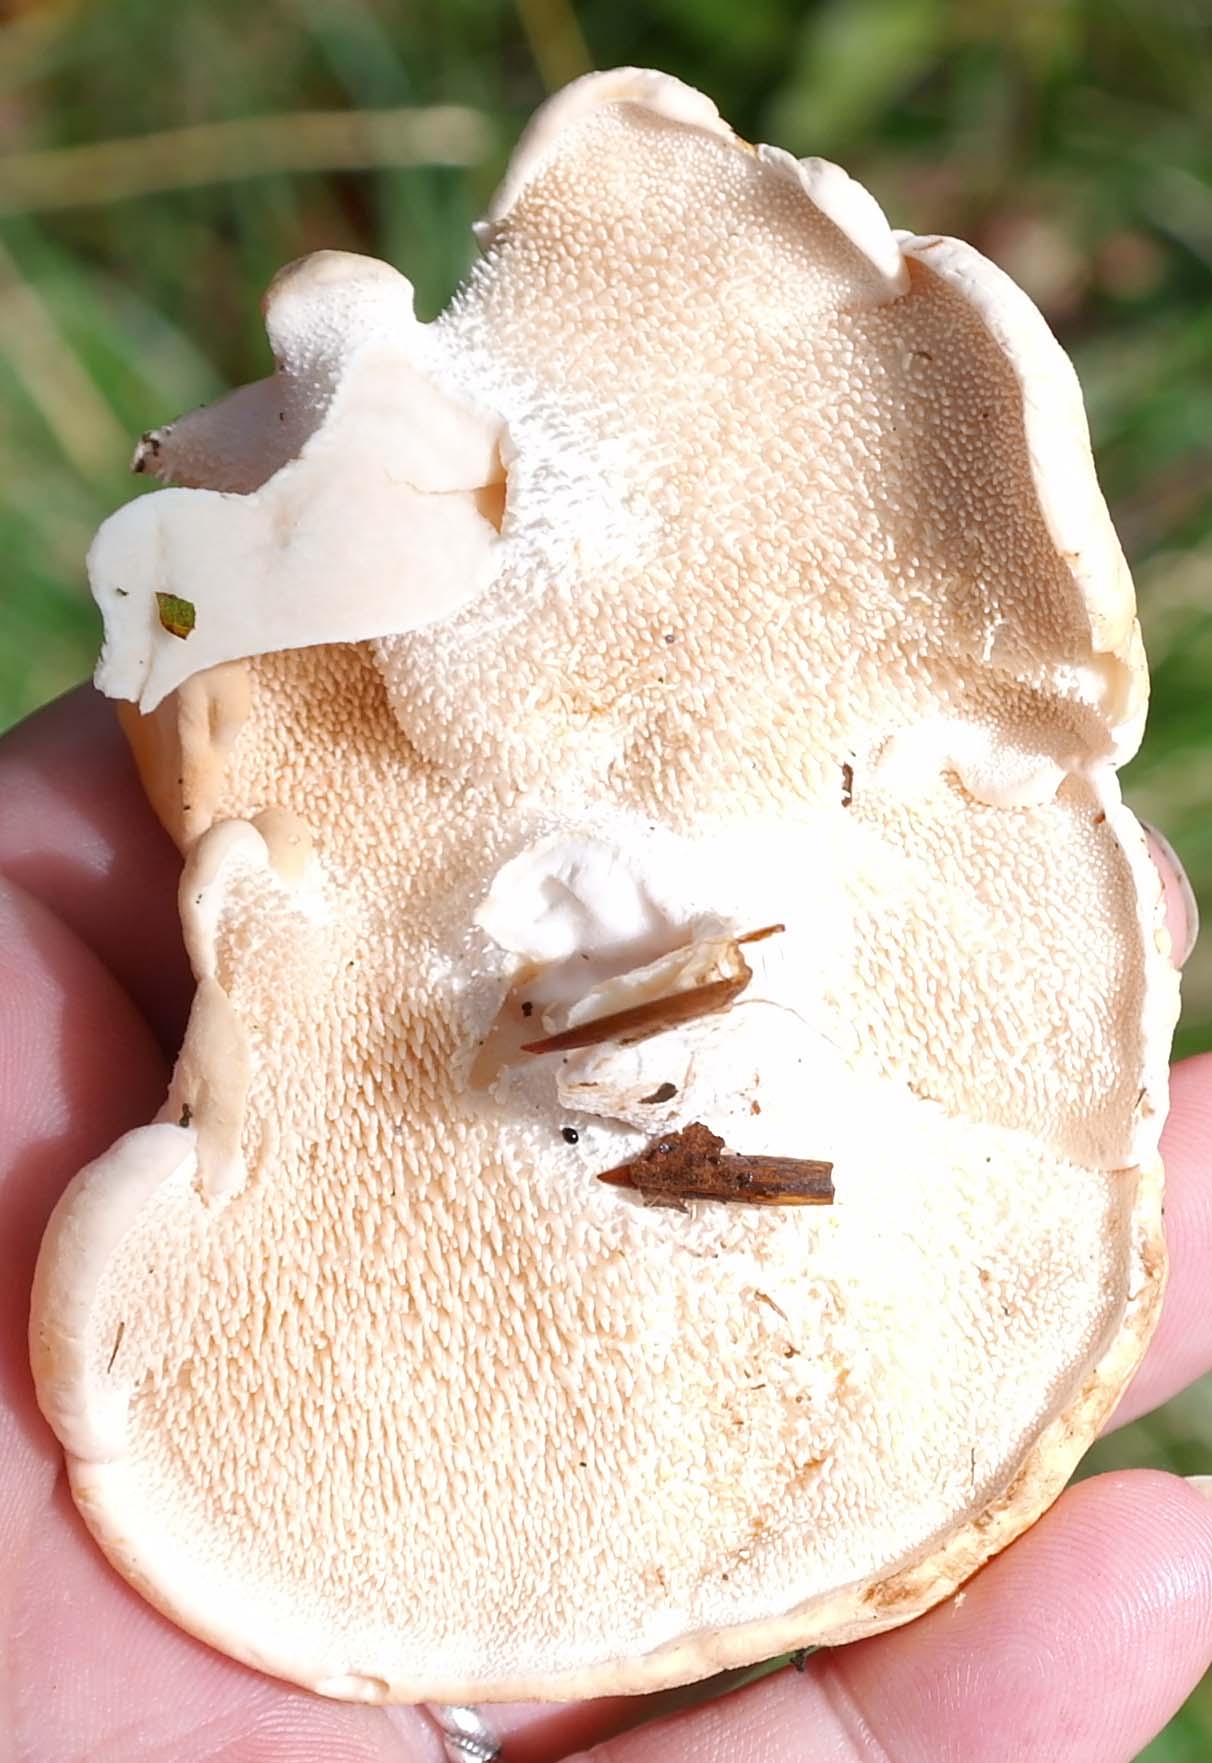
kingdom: Fungi
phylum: Basidiomycota
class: Agaricomycetes
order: Cantharellales
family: Hydnaceae
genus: Hydnum
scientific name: Hydnum repandum
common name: almindelig pigsvamp
